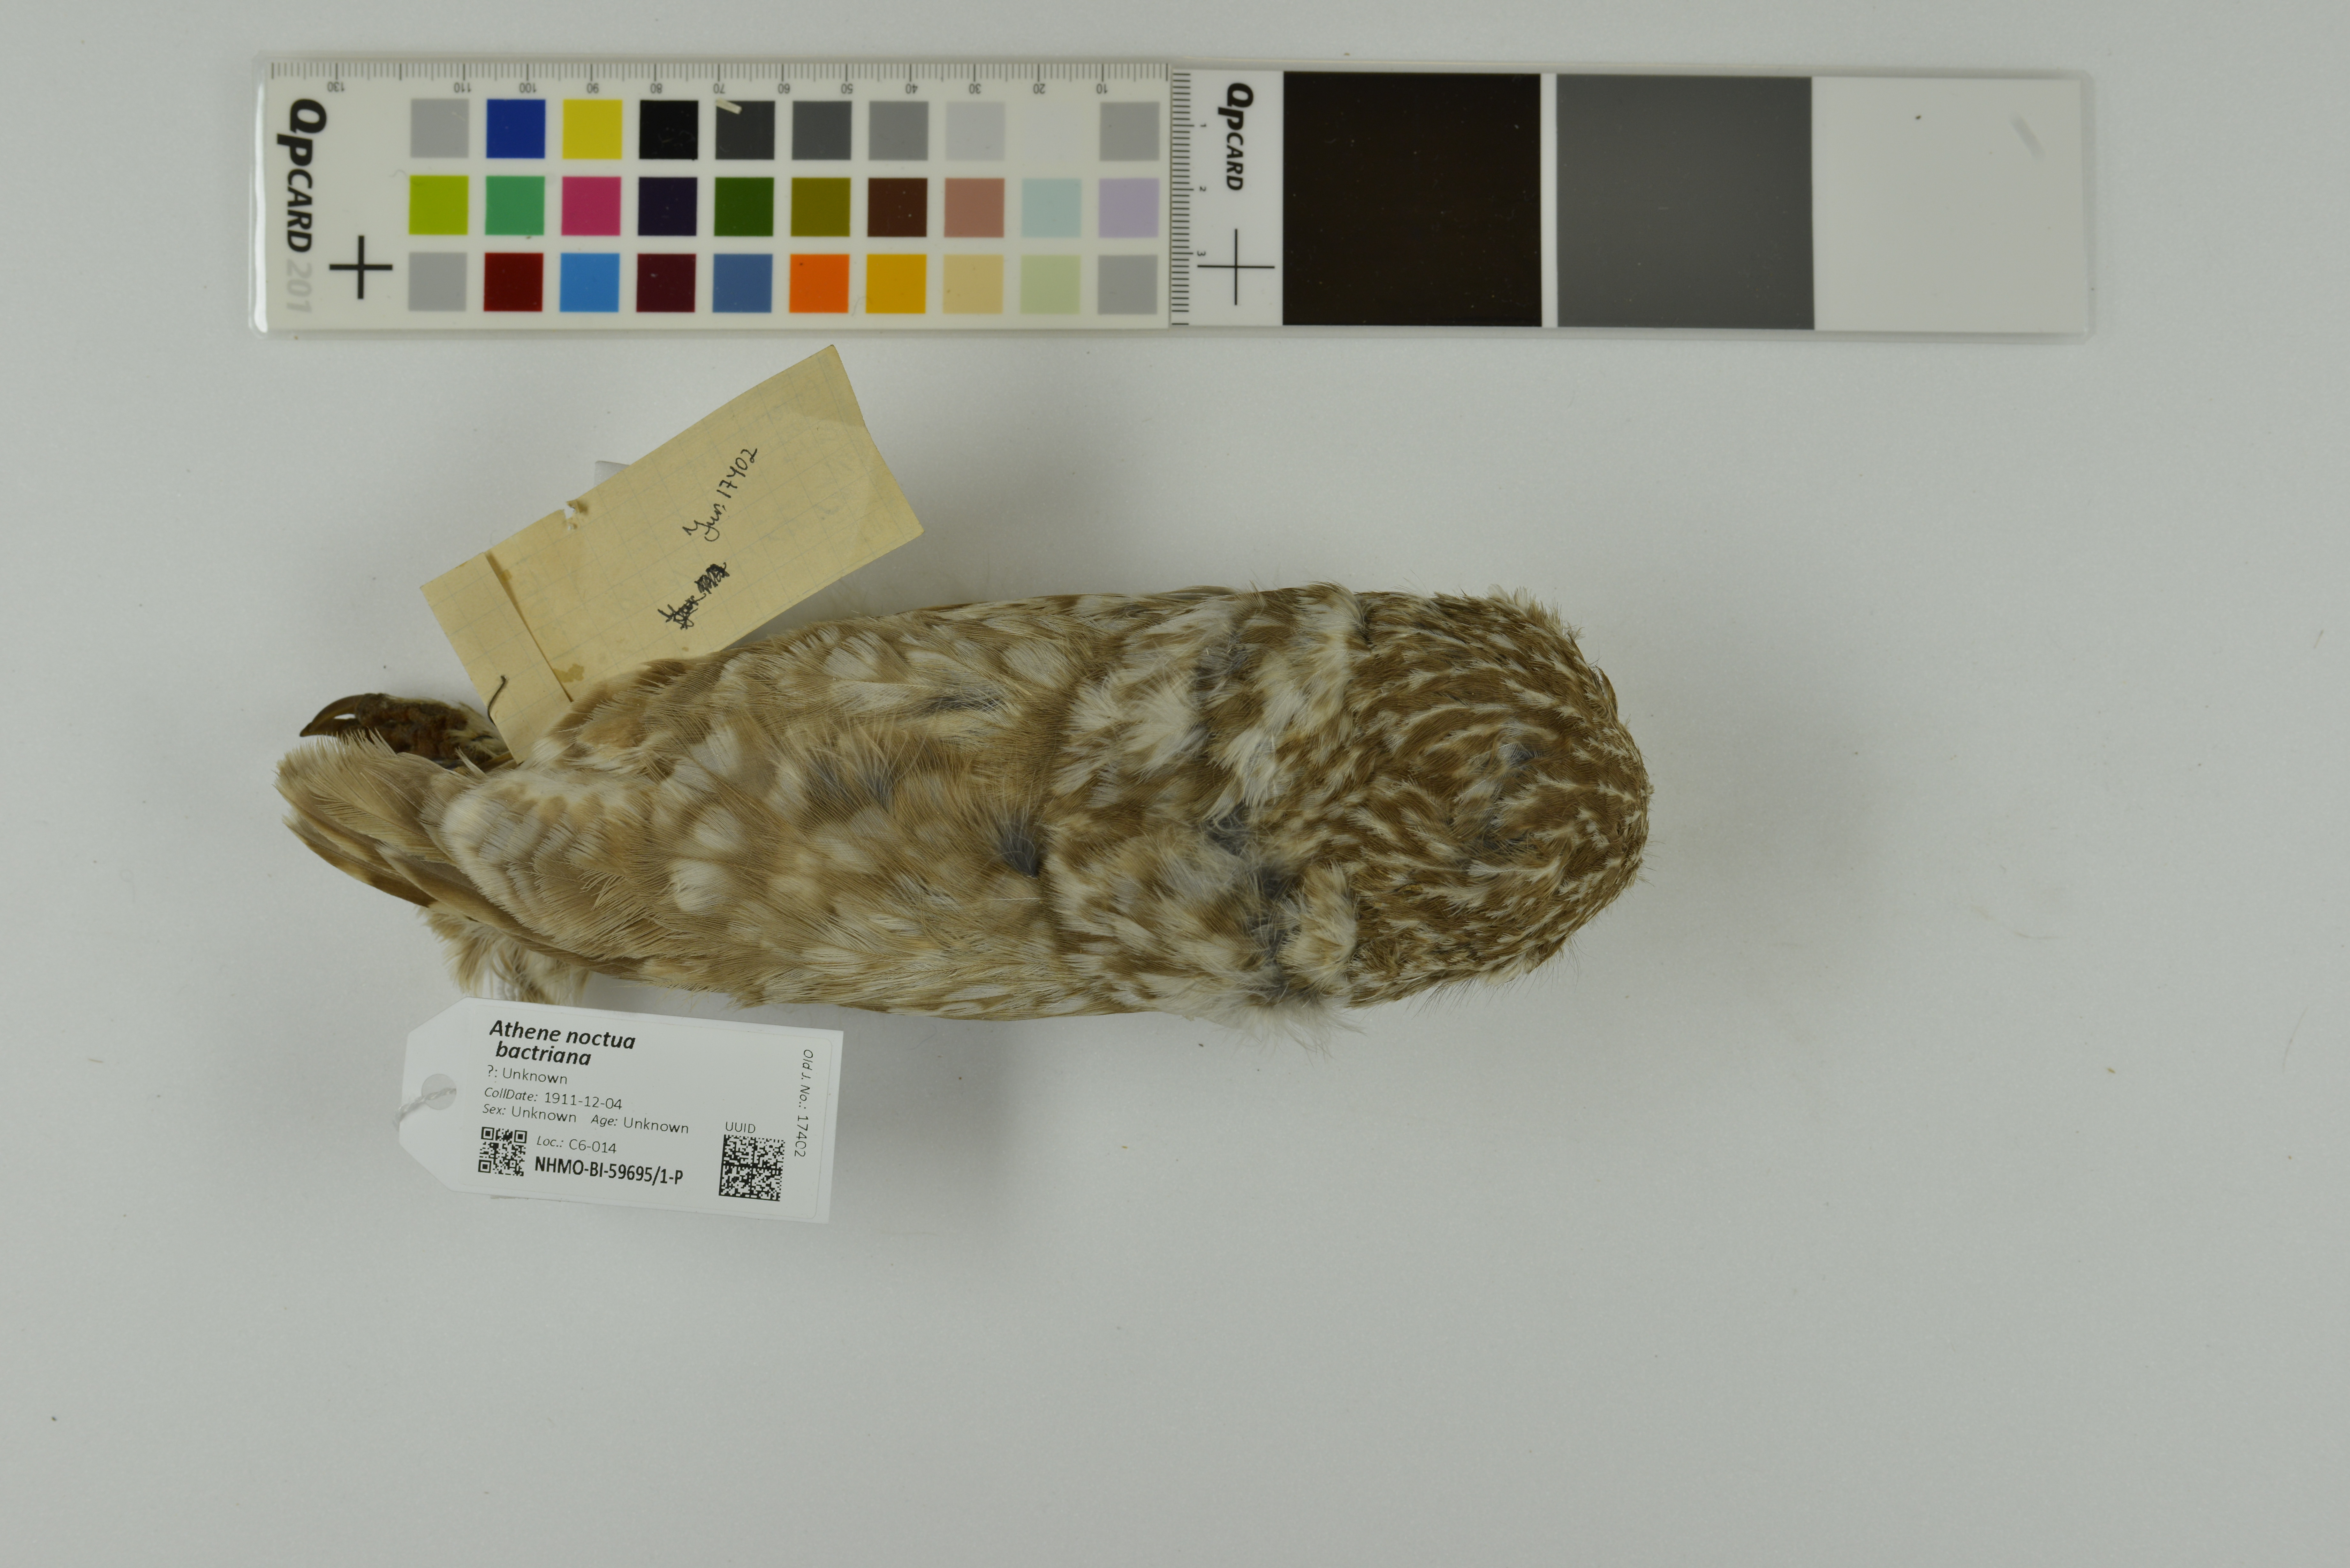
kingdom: Animalia
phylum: Chordata
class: Aves
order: Strigiformes
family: Strigidae
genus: Athene
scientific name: Athene noctua
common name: Little owl
